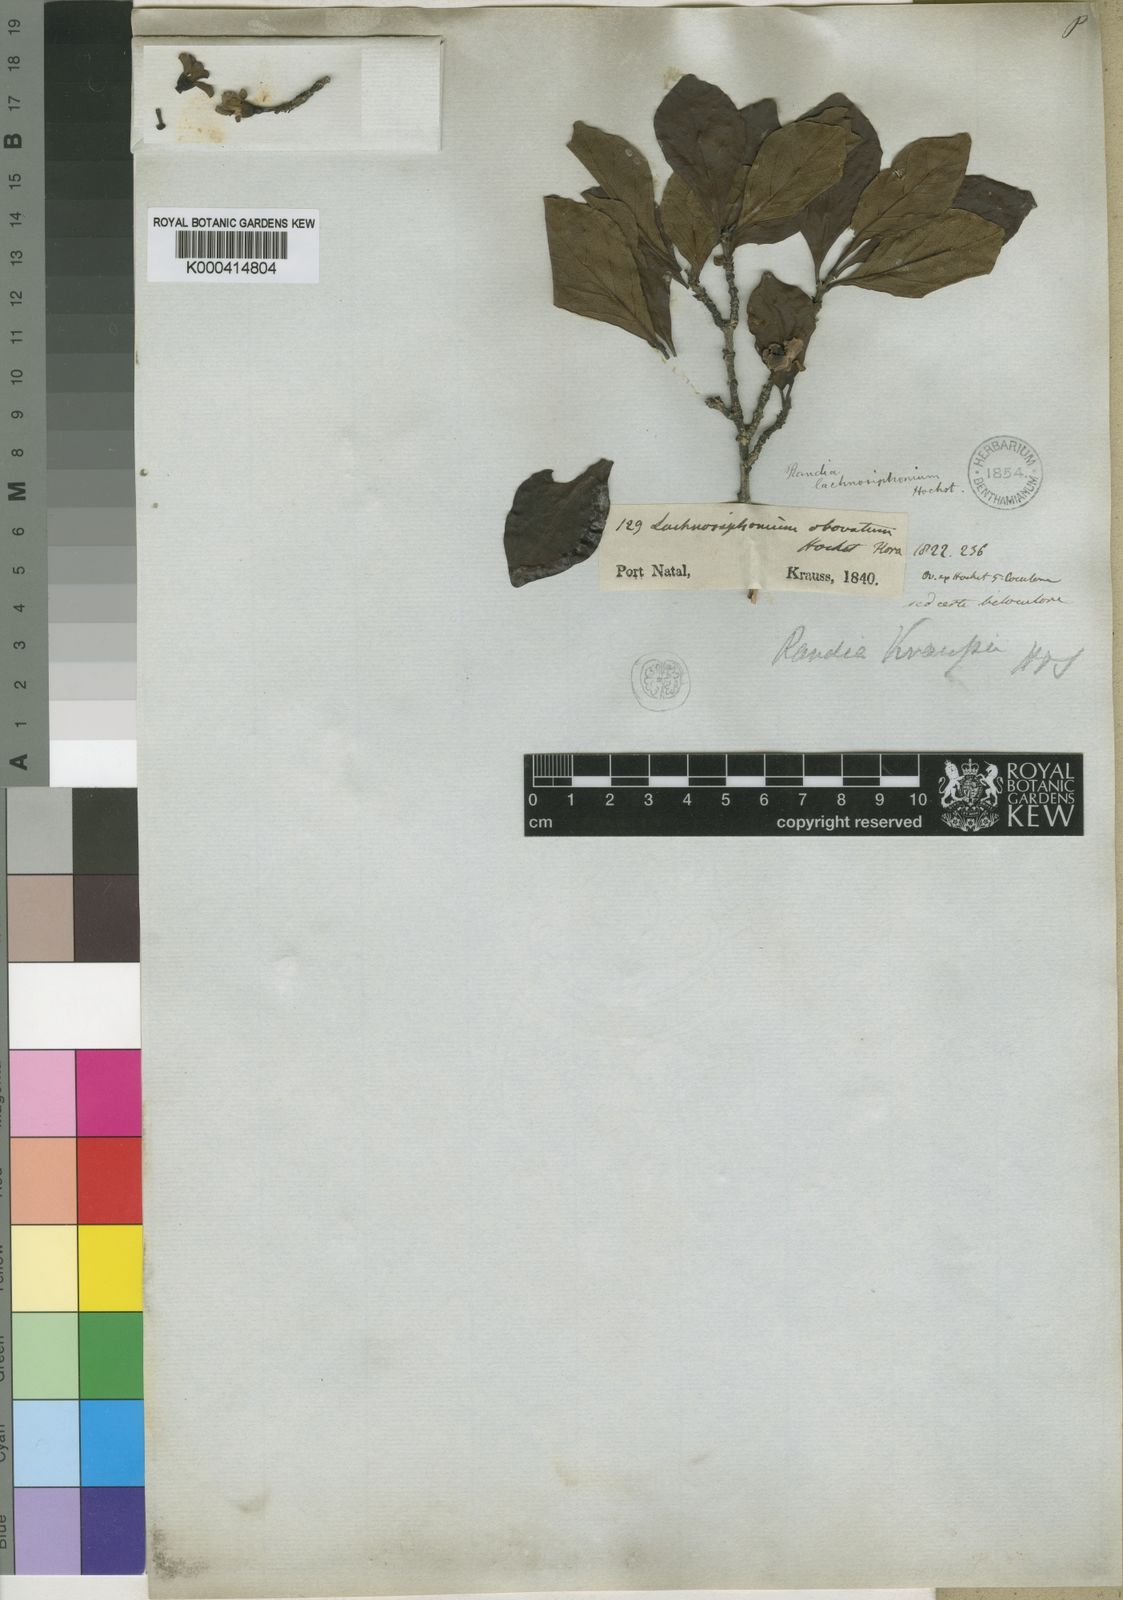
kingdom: Plantae
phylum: Tracheophyta
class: Magnoliopsida
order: Gentianales
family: Rubiaceae
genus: Catunaregam
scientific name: Catunaregam
